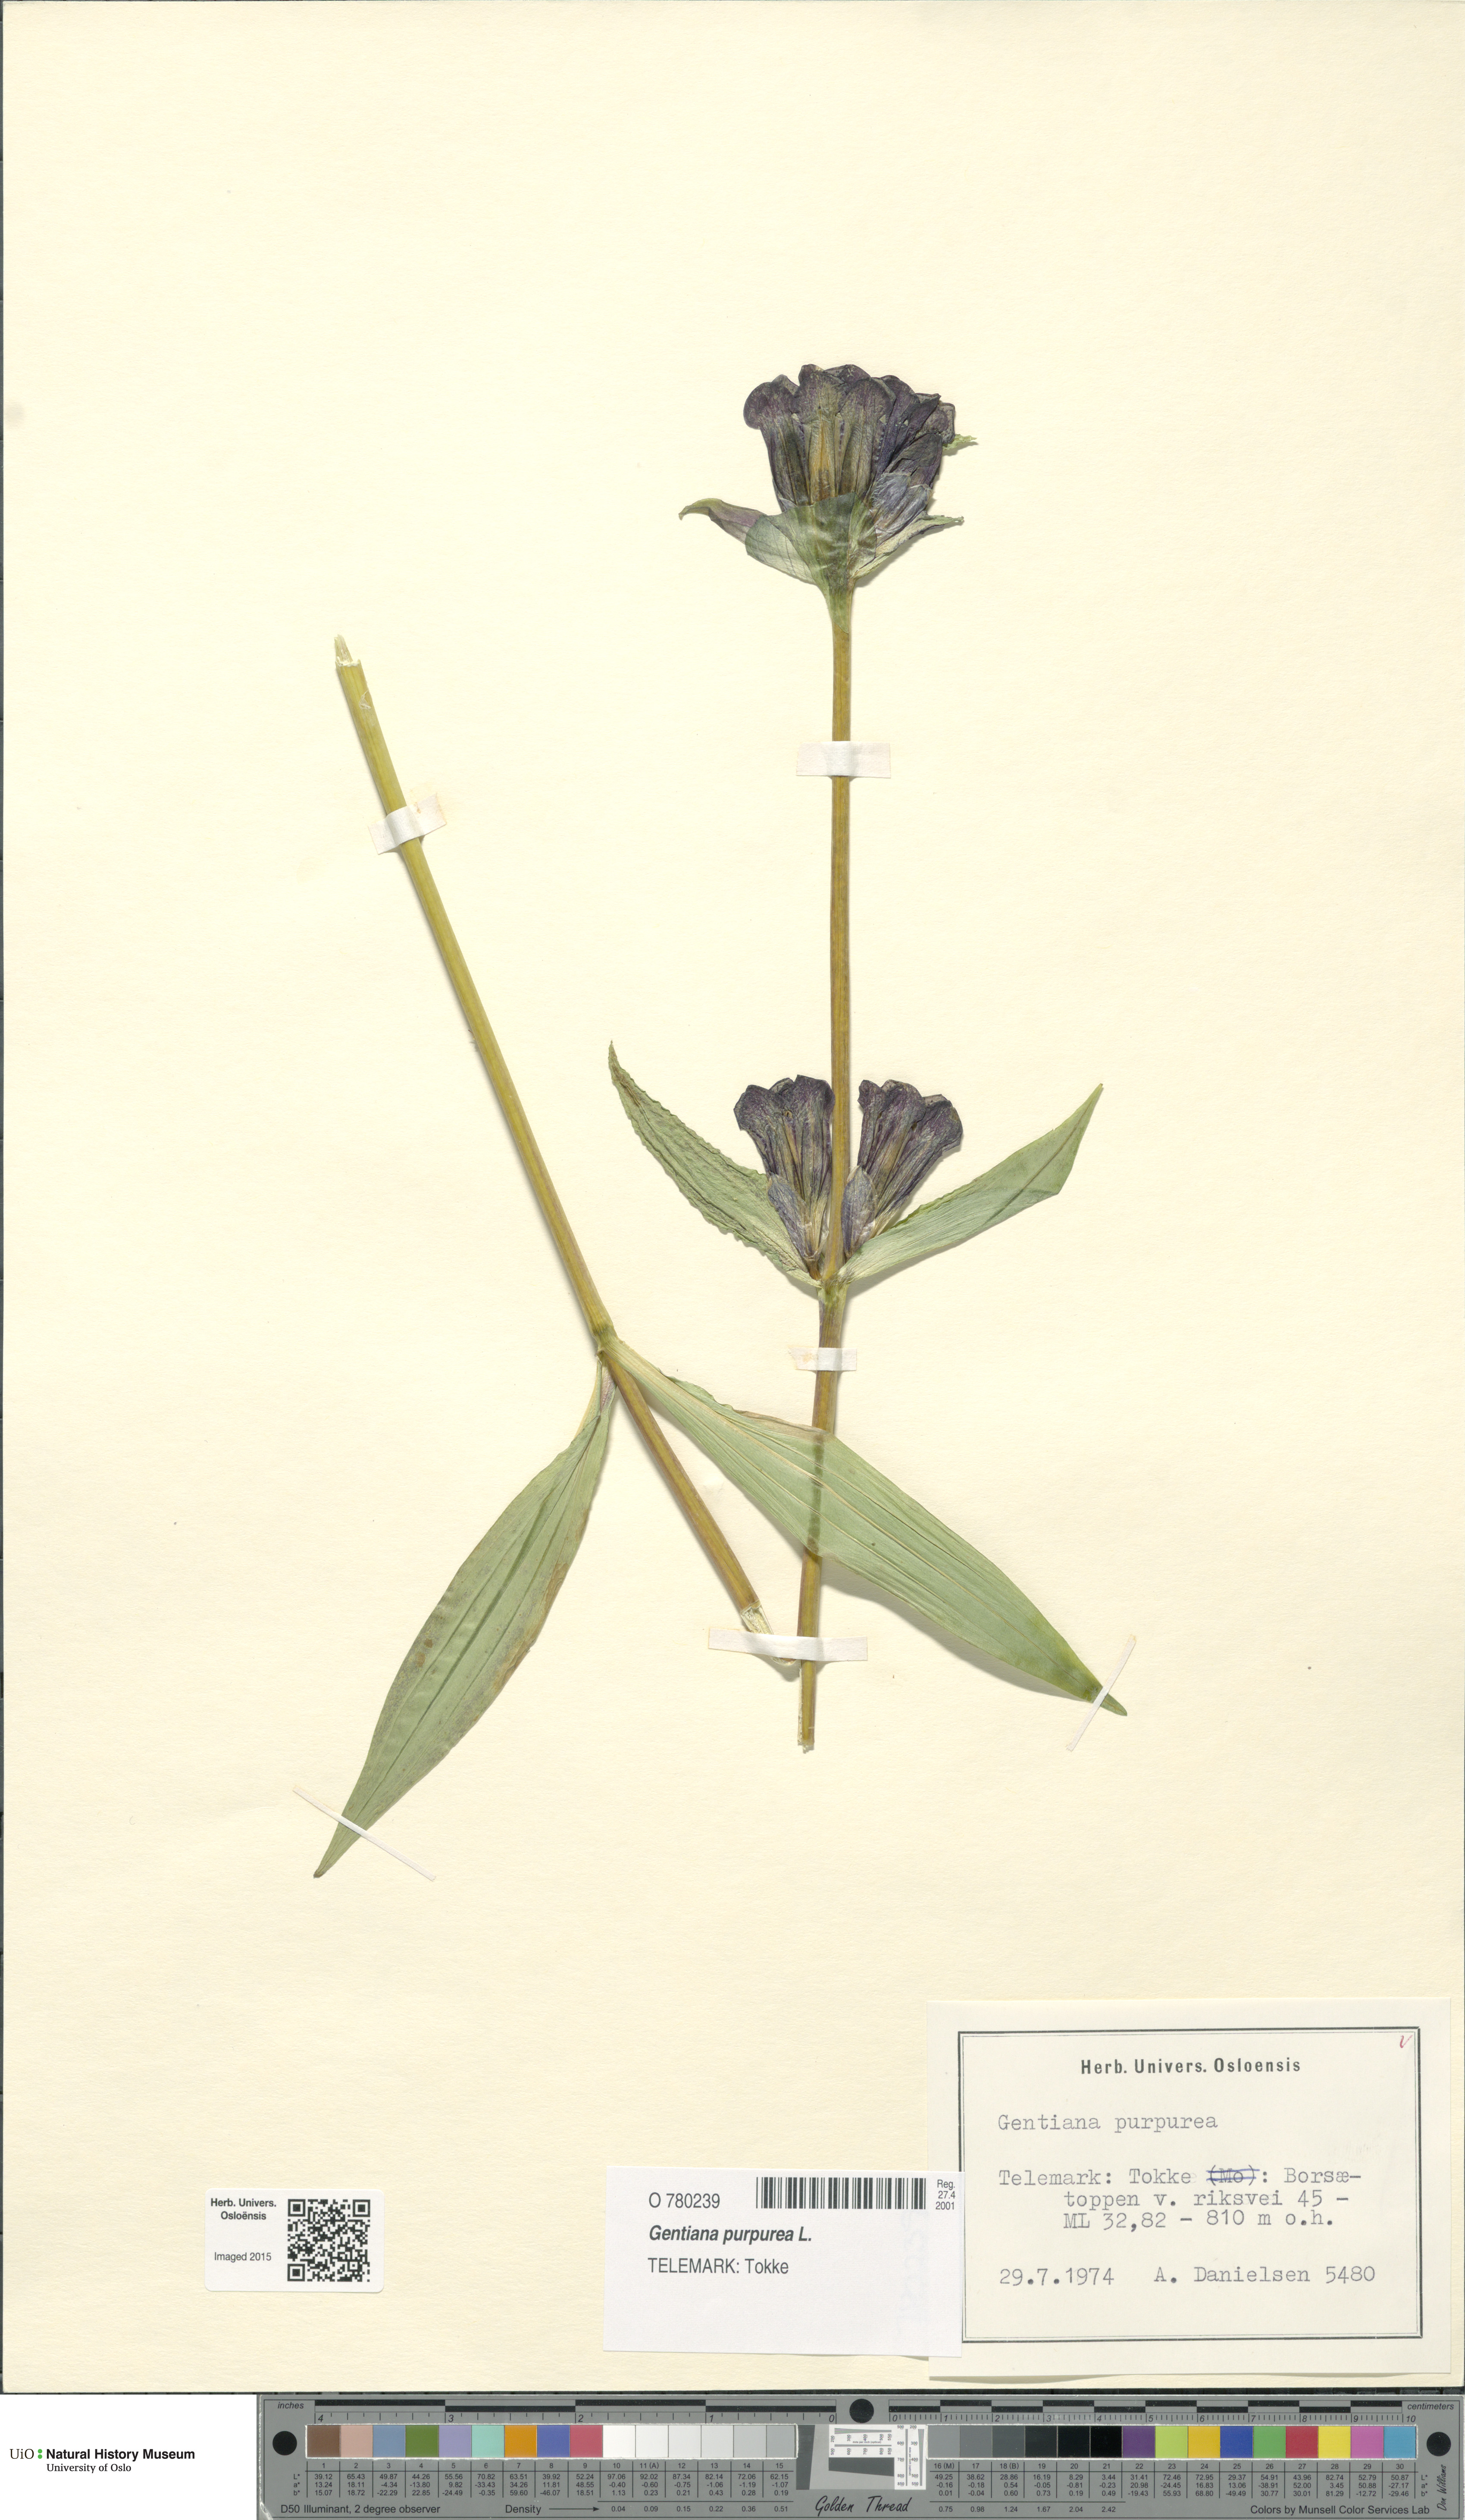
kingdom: Plantae
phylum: Tracheophyta
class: Magnoliopsida
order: Gentianales
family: Gentianaceae
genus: Gentiana
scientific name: Gentiana purpurea
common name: Purple gentian
